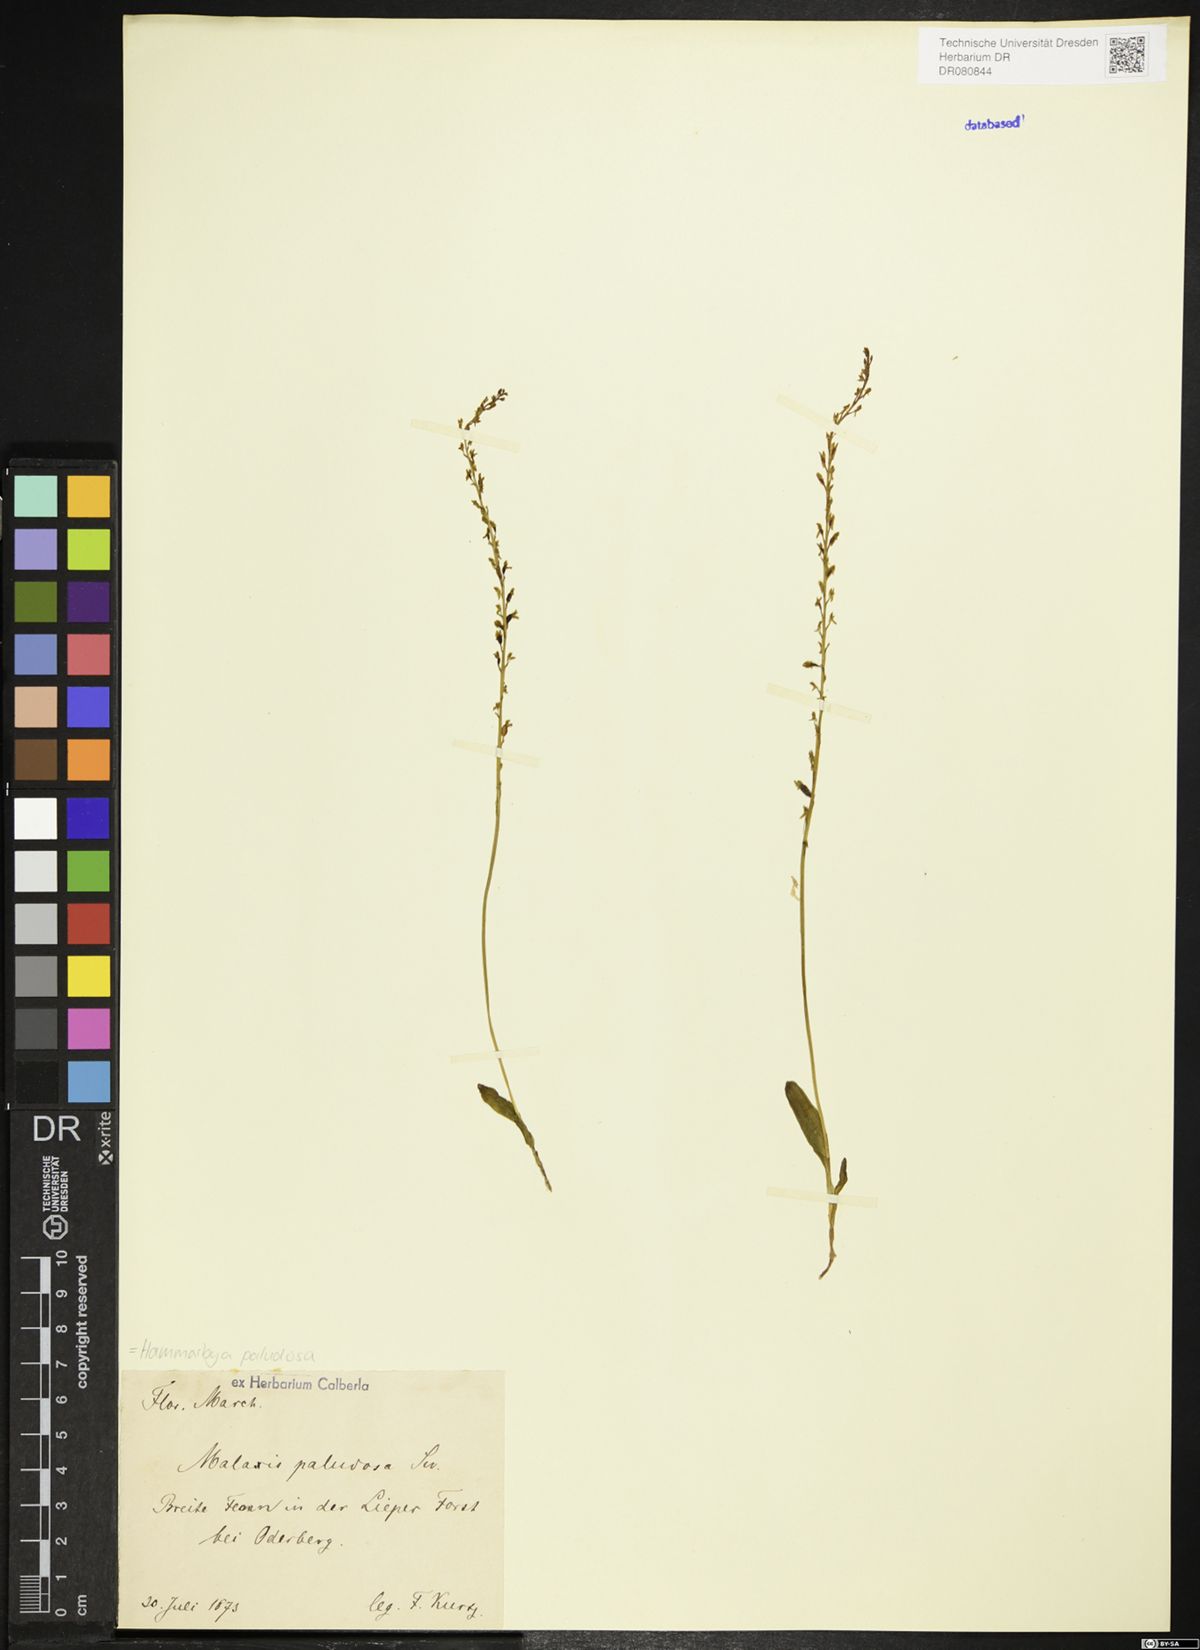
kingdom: Plantae
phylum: Tracheophyta
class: Liliopsida
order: Asparagales
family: Orchidaceae
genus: Hammarbya
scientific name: Hammarbya paludosa
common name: Bog orchid
